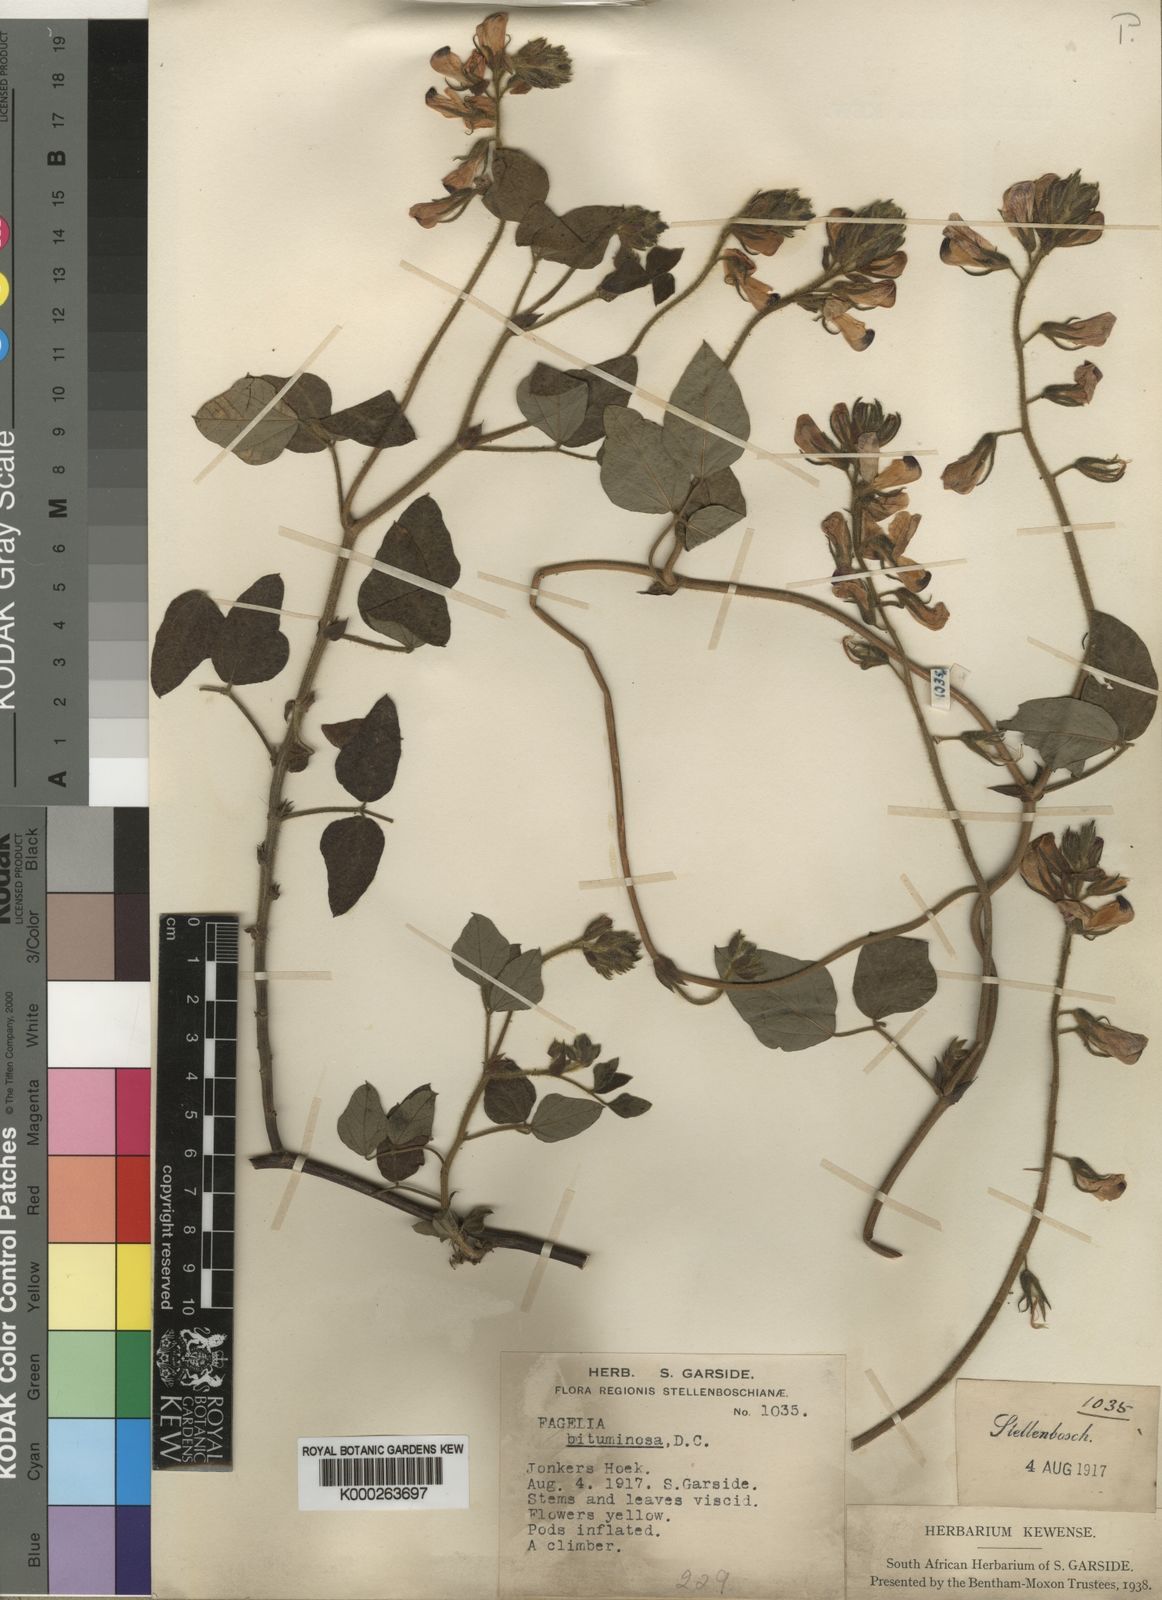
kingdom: Plantae
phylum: Tracheophyta
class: Magnoliopsida
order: Fabales
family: Fabaceae
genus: Bolusafra
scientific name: Bolusafra bituminosa
